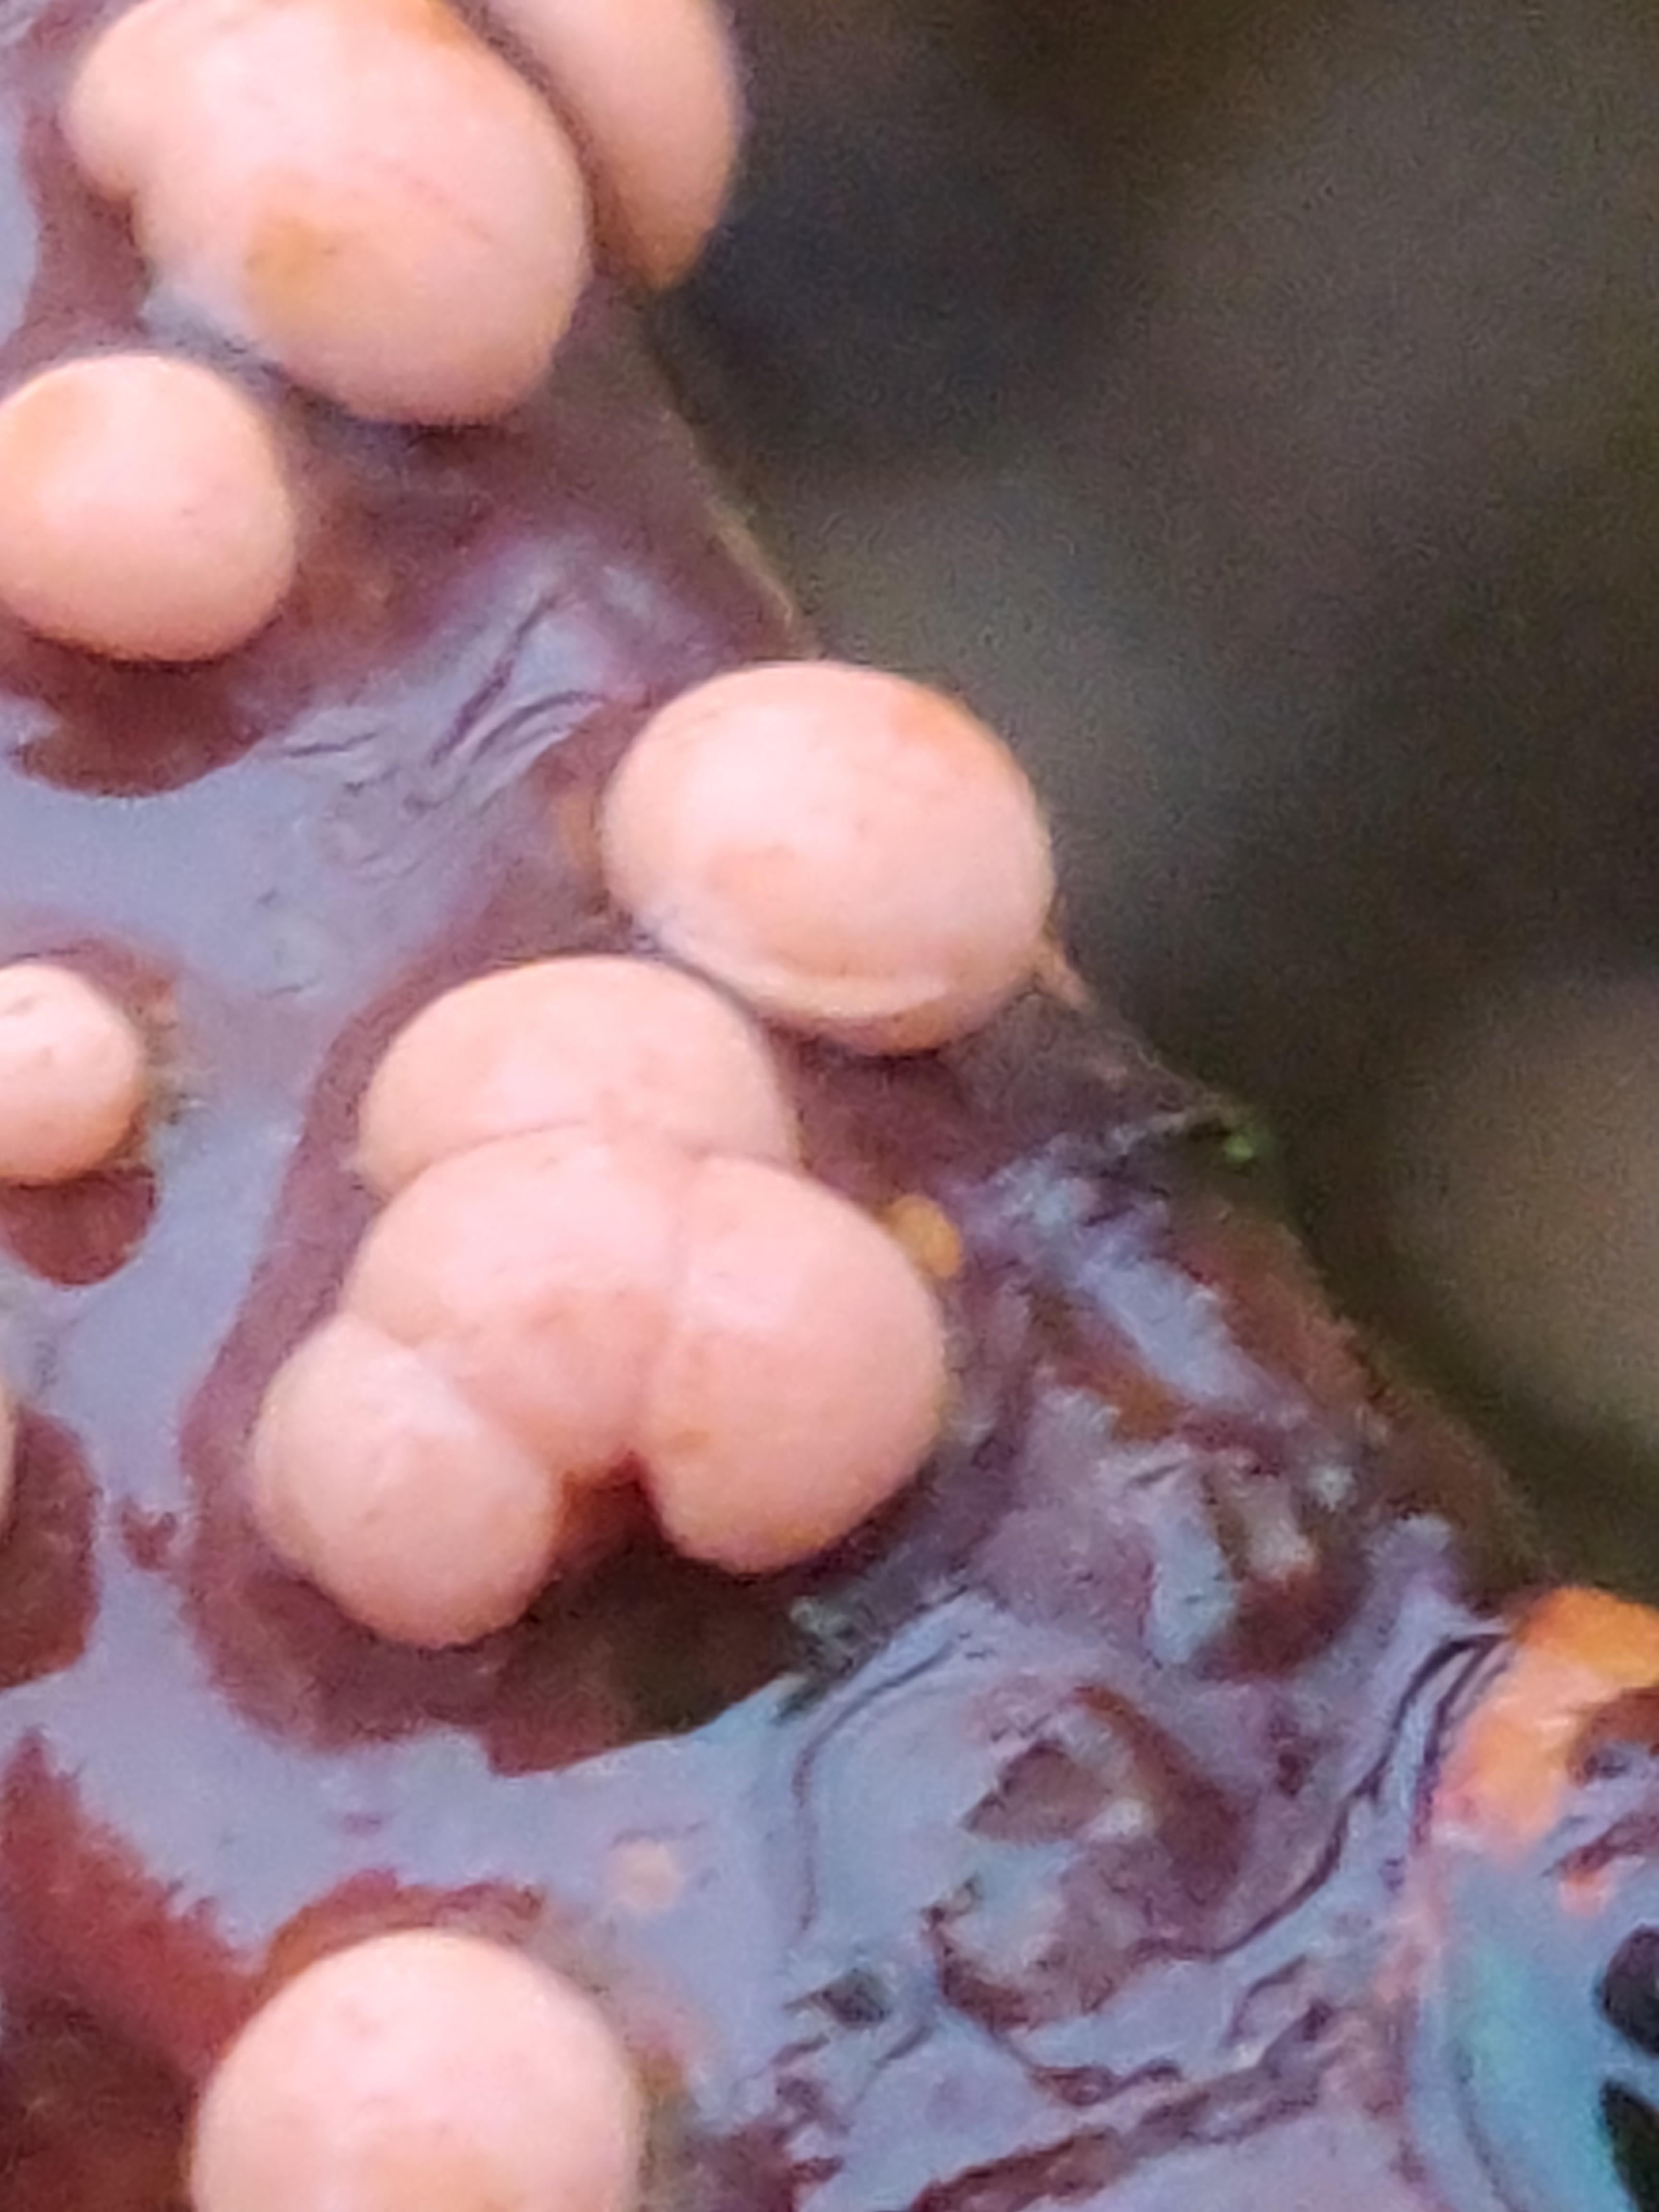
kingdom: Fungi
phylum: Ascomycota
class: Sordariomycetes
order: Hypocreales
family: Nectriaceae
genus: Nectria
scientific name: Nectria cinnabarina
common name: almindelig cinnobersvamp
